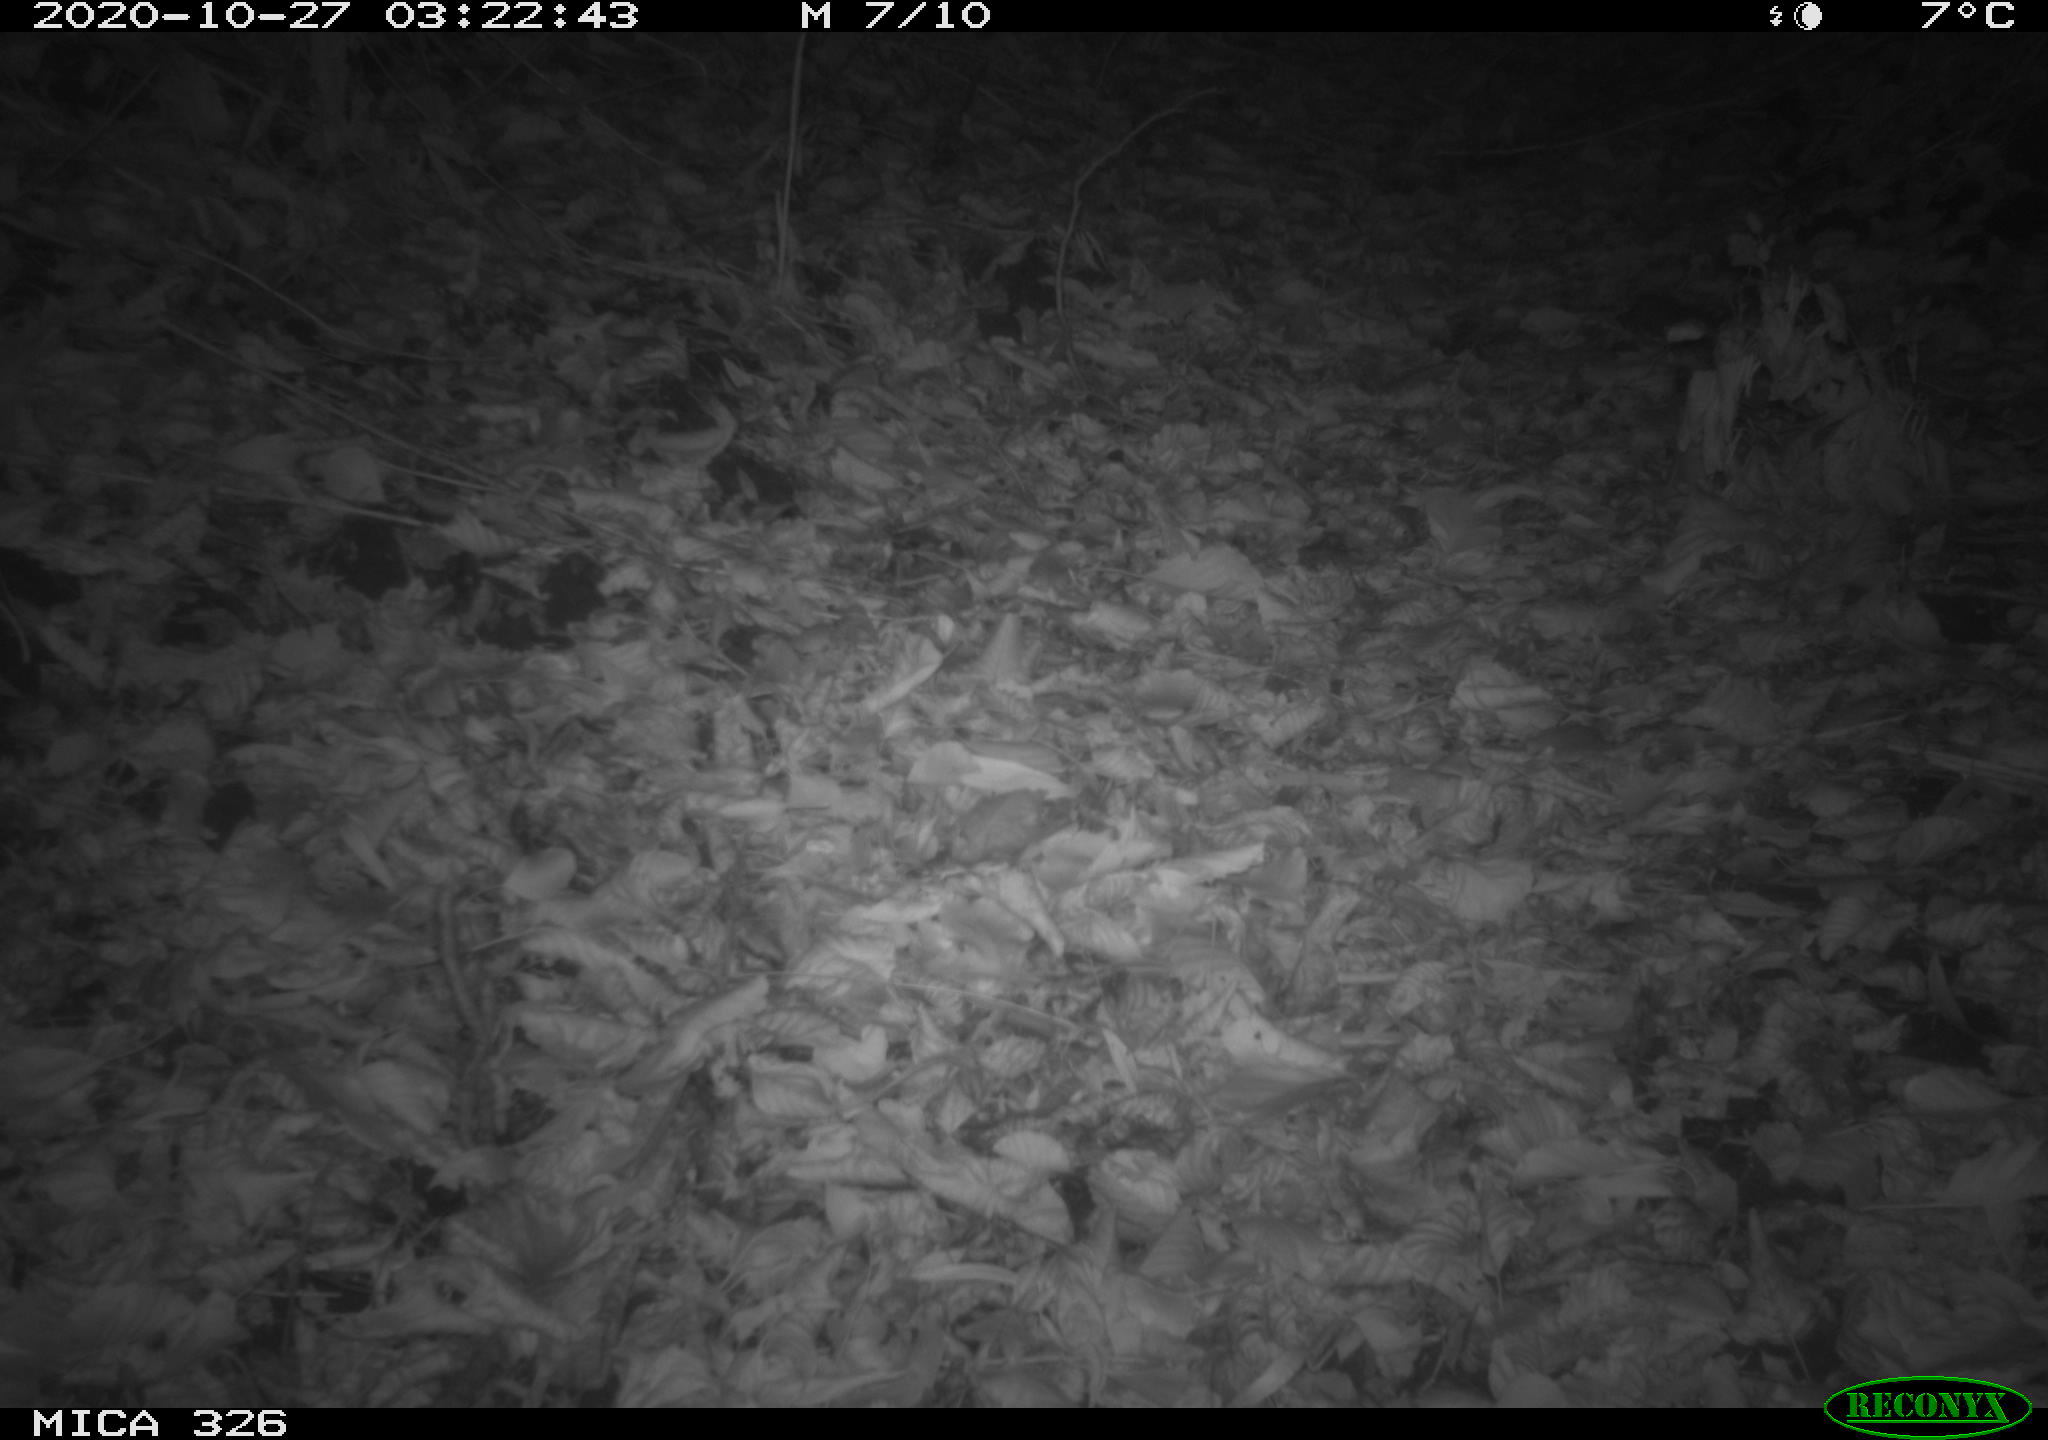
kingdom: Animalia
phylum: Chordata
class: Mammalia
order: Rodentia
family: Myocastoridae
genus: Myocastor
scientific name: Myocastor coypus
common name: Coypu
